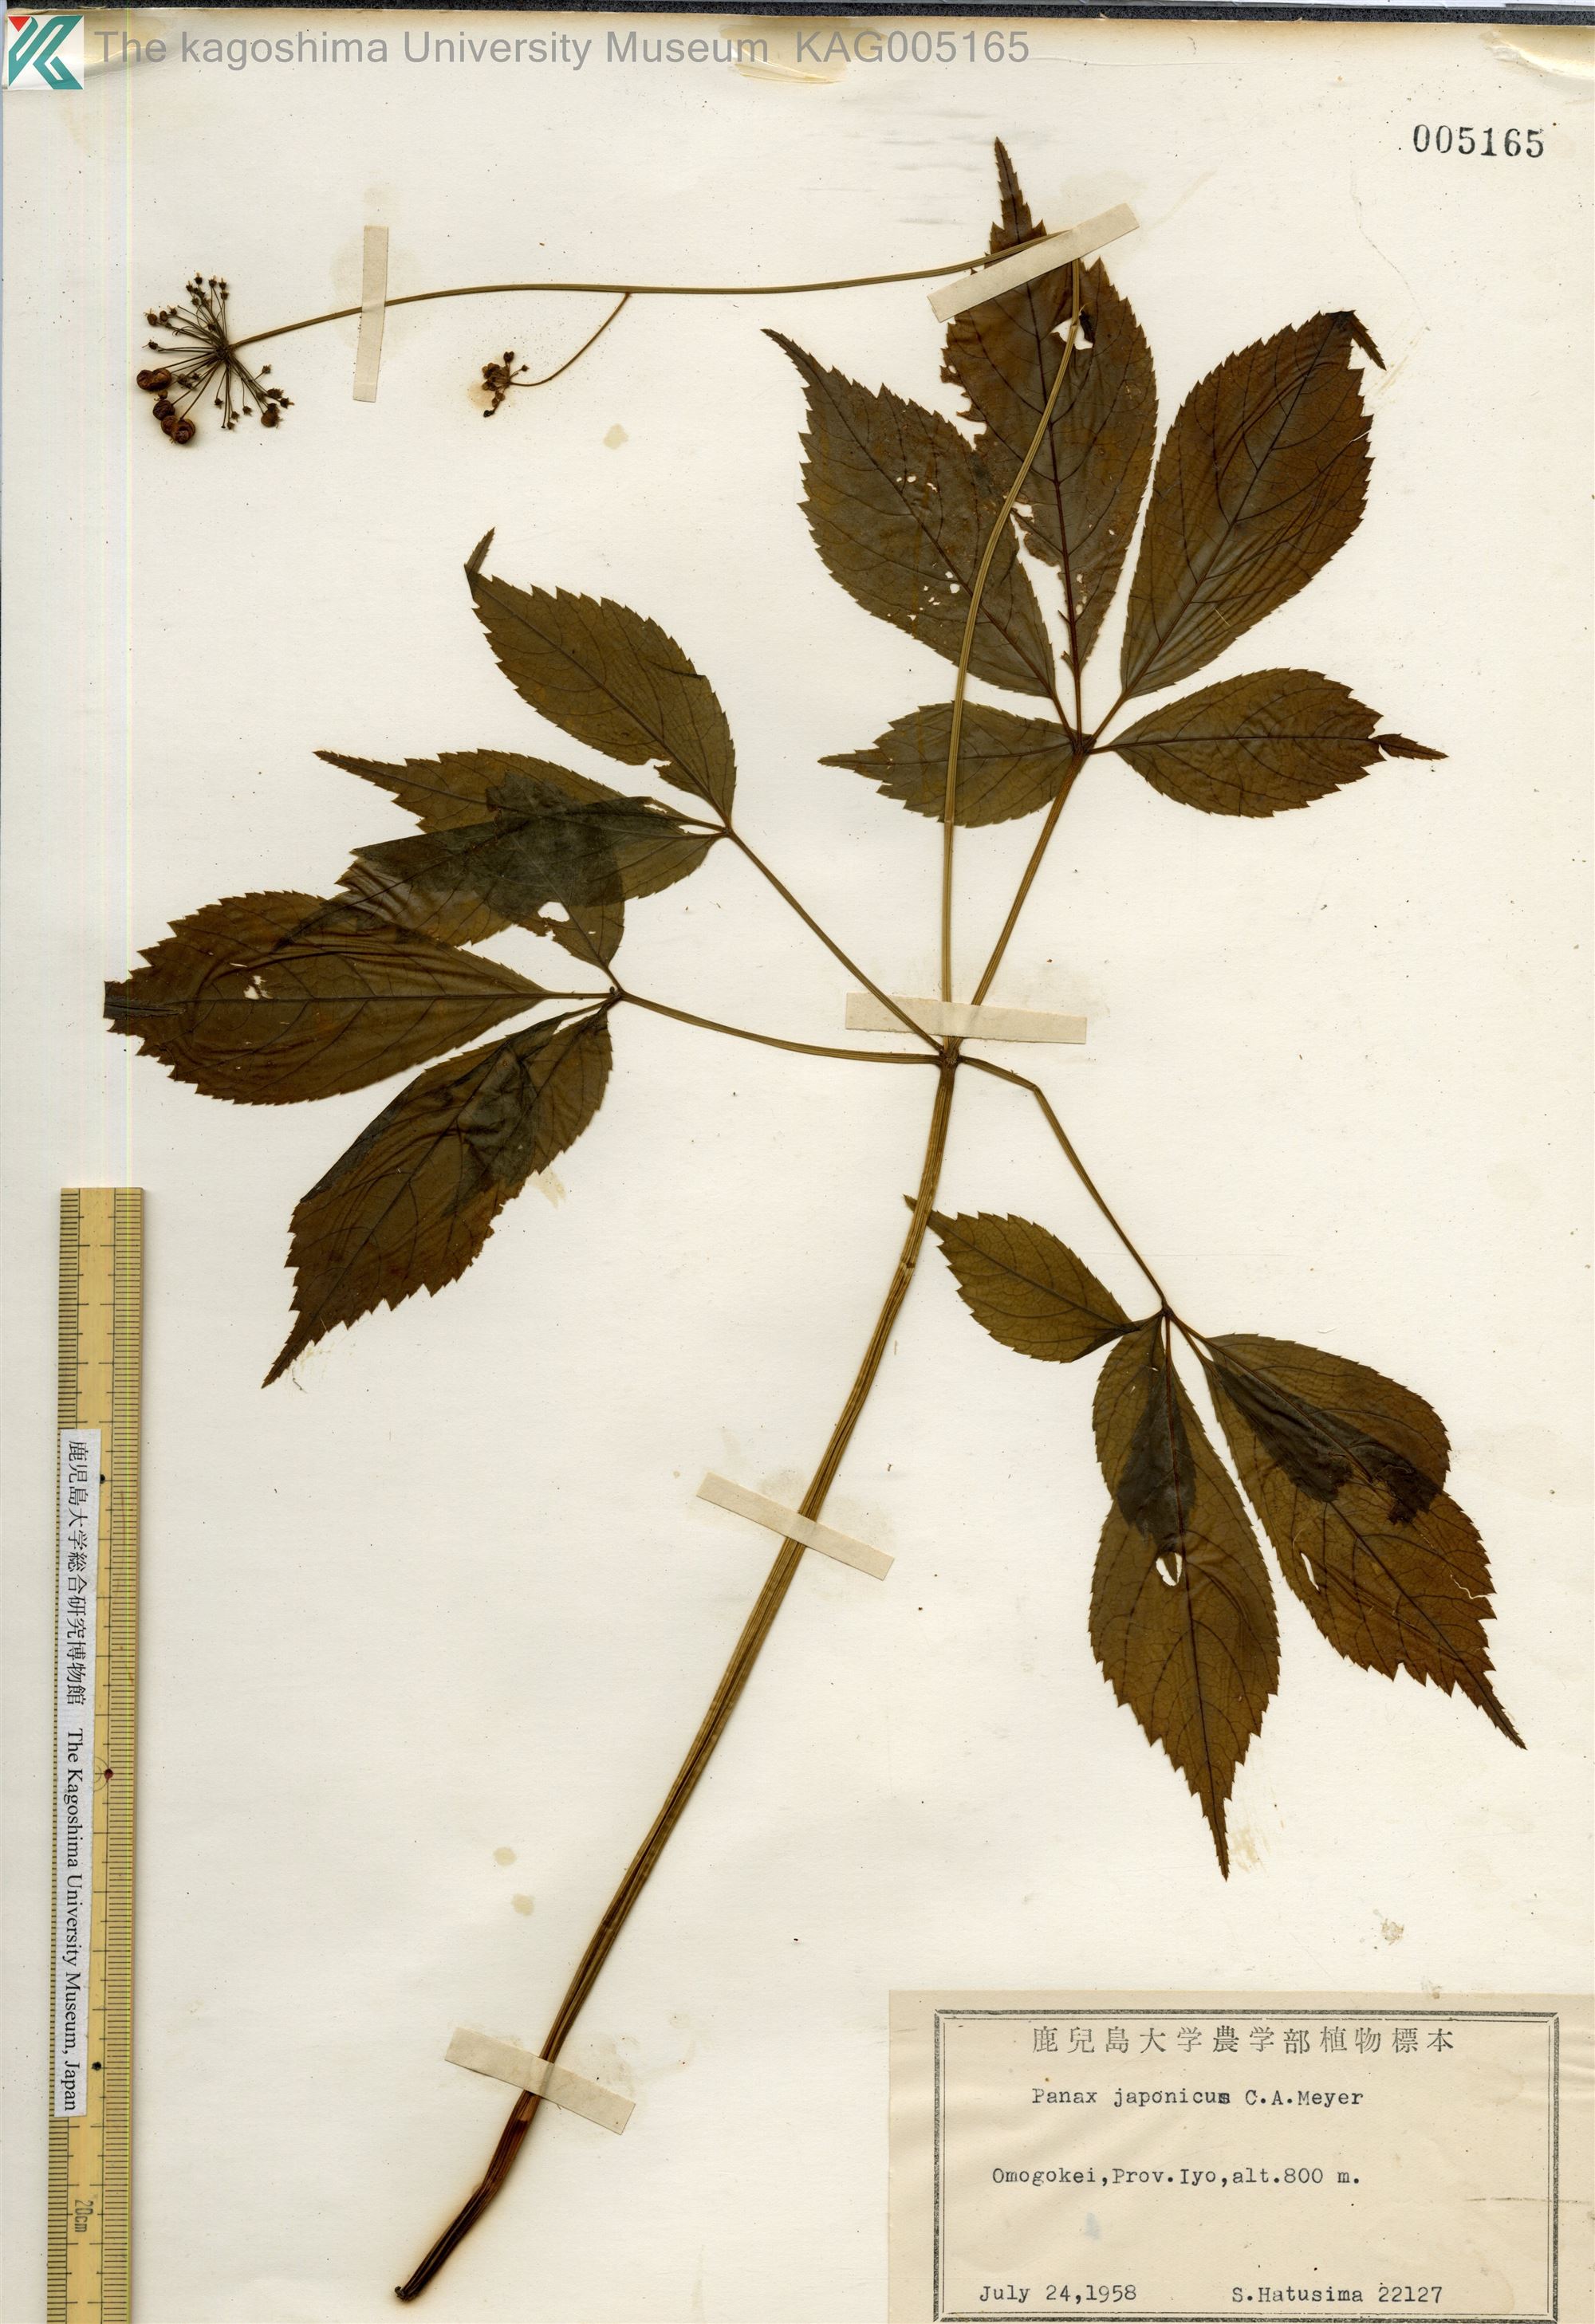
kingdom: Plantae
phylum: Tracheophyta
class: Magnoliopsida
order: Apiales
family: Araliaceae
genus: Panax
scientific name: Panax japonicus
